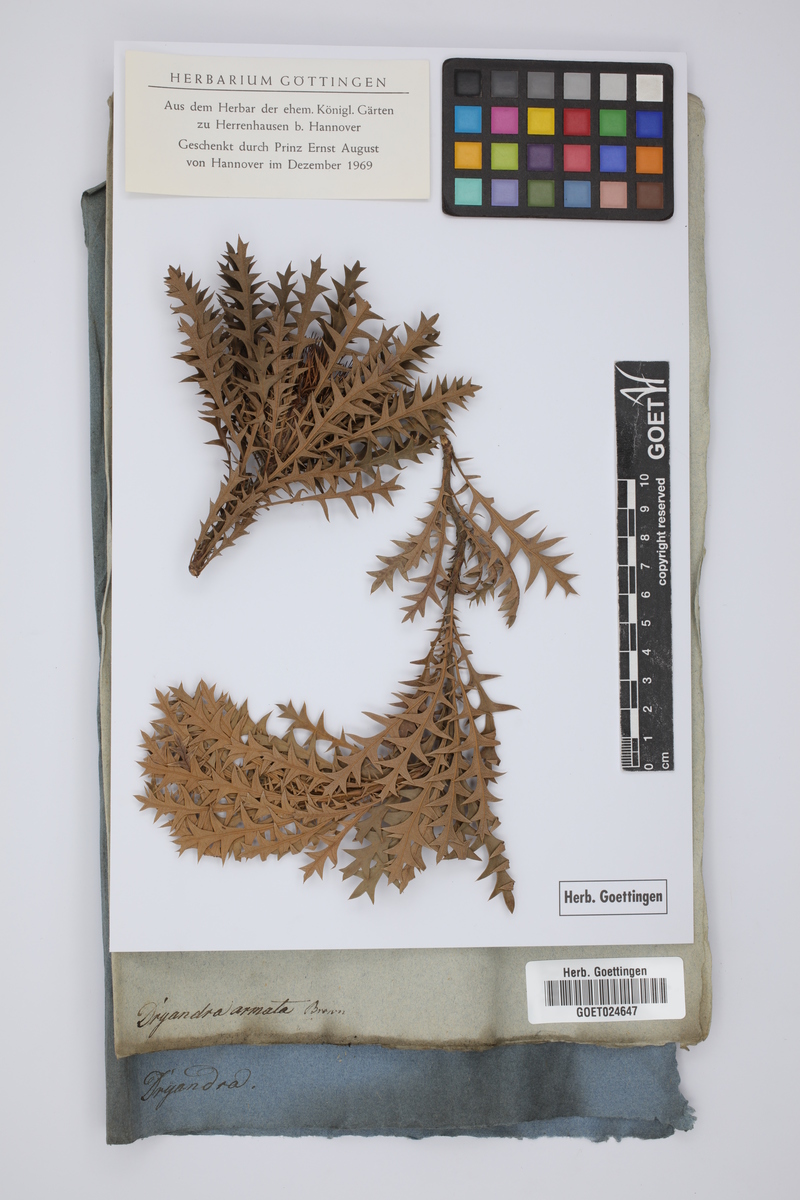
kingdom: Plantae
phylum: Tracheophyta
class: Magnoliopsida
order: Proteales
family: Proteaceae
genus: Banksia
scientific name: Banksia armata
